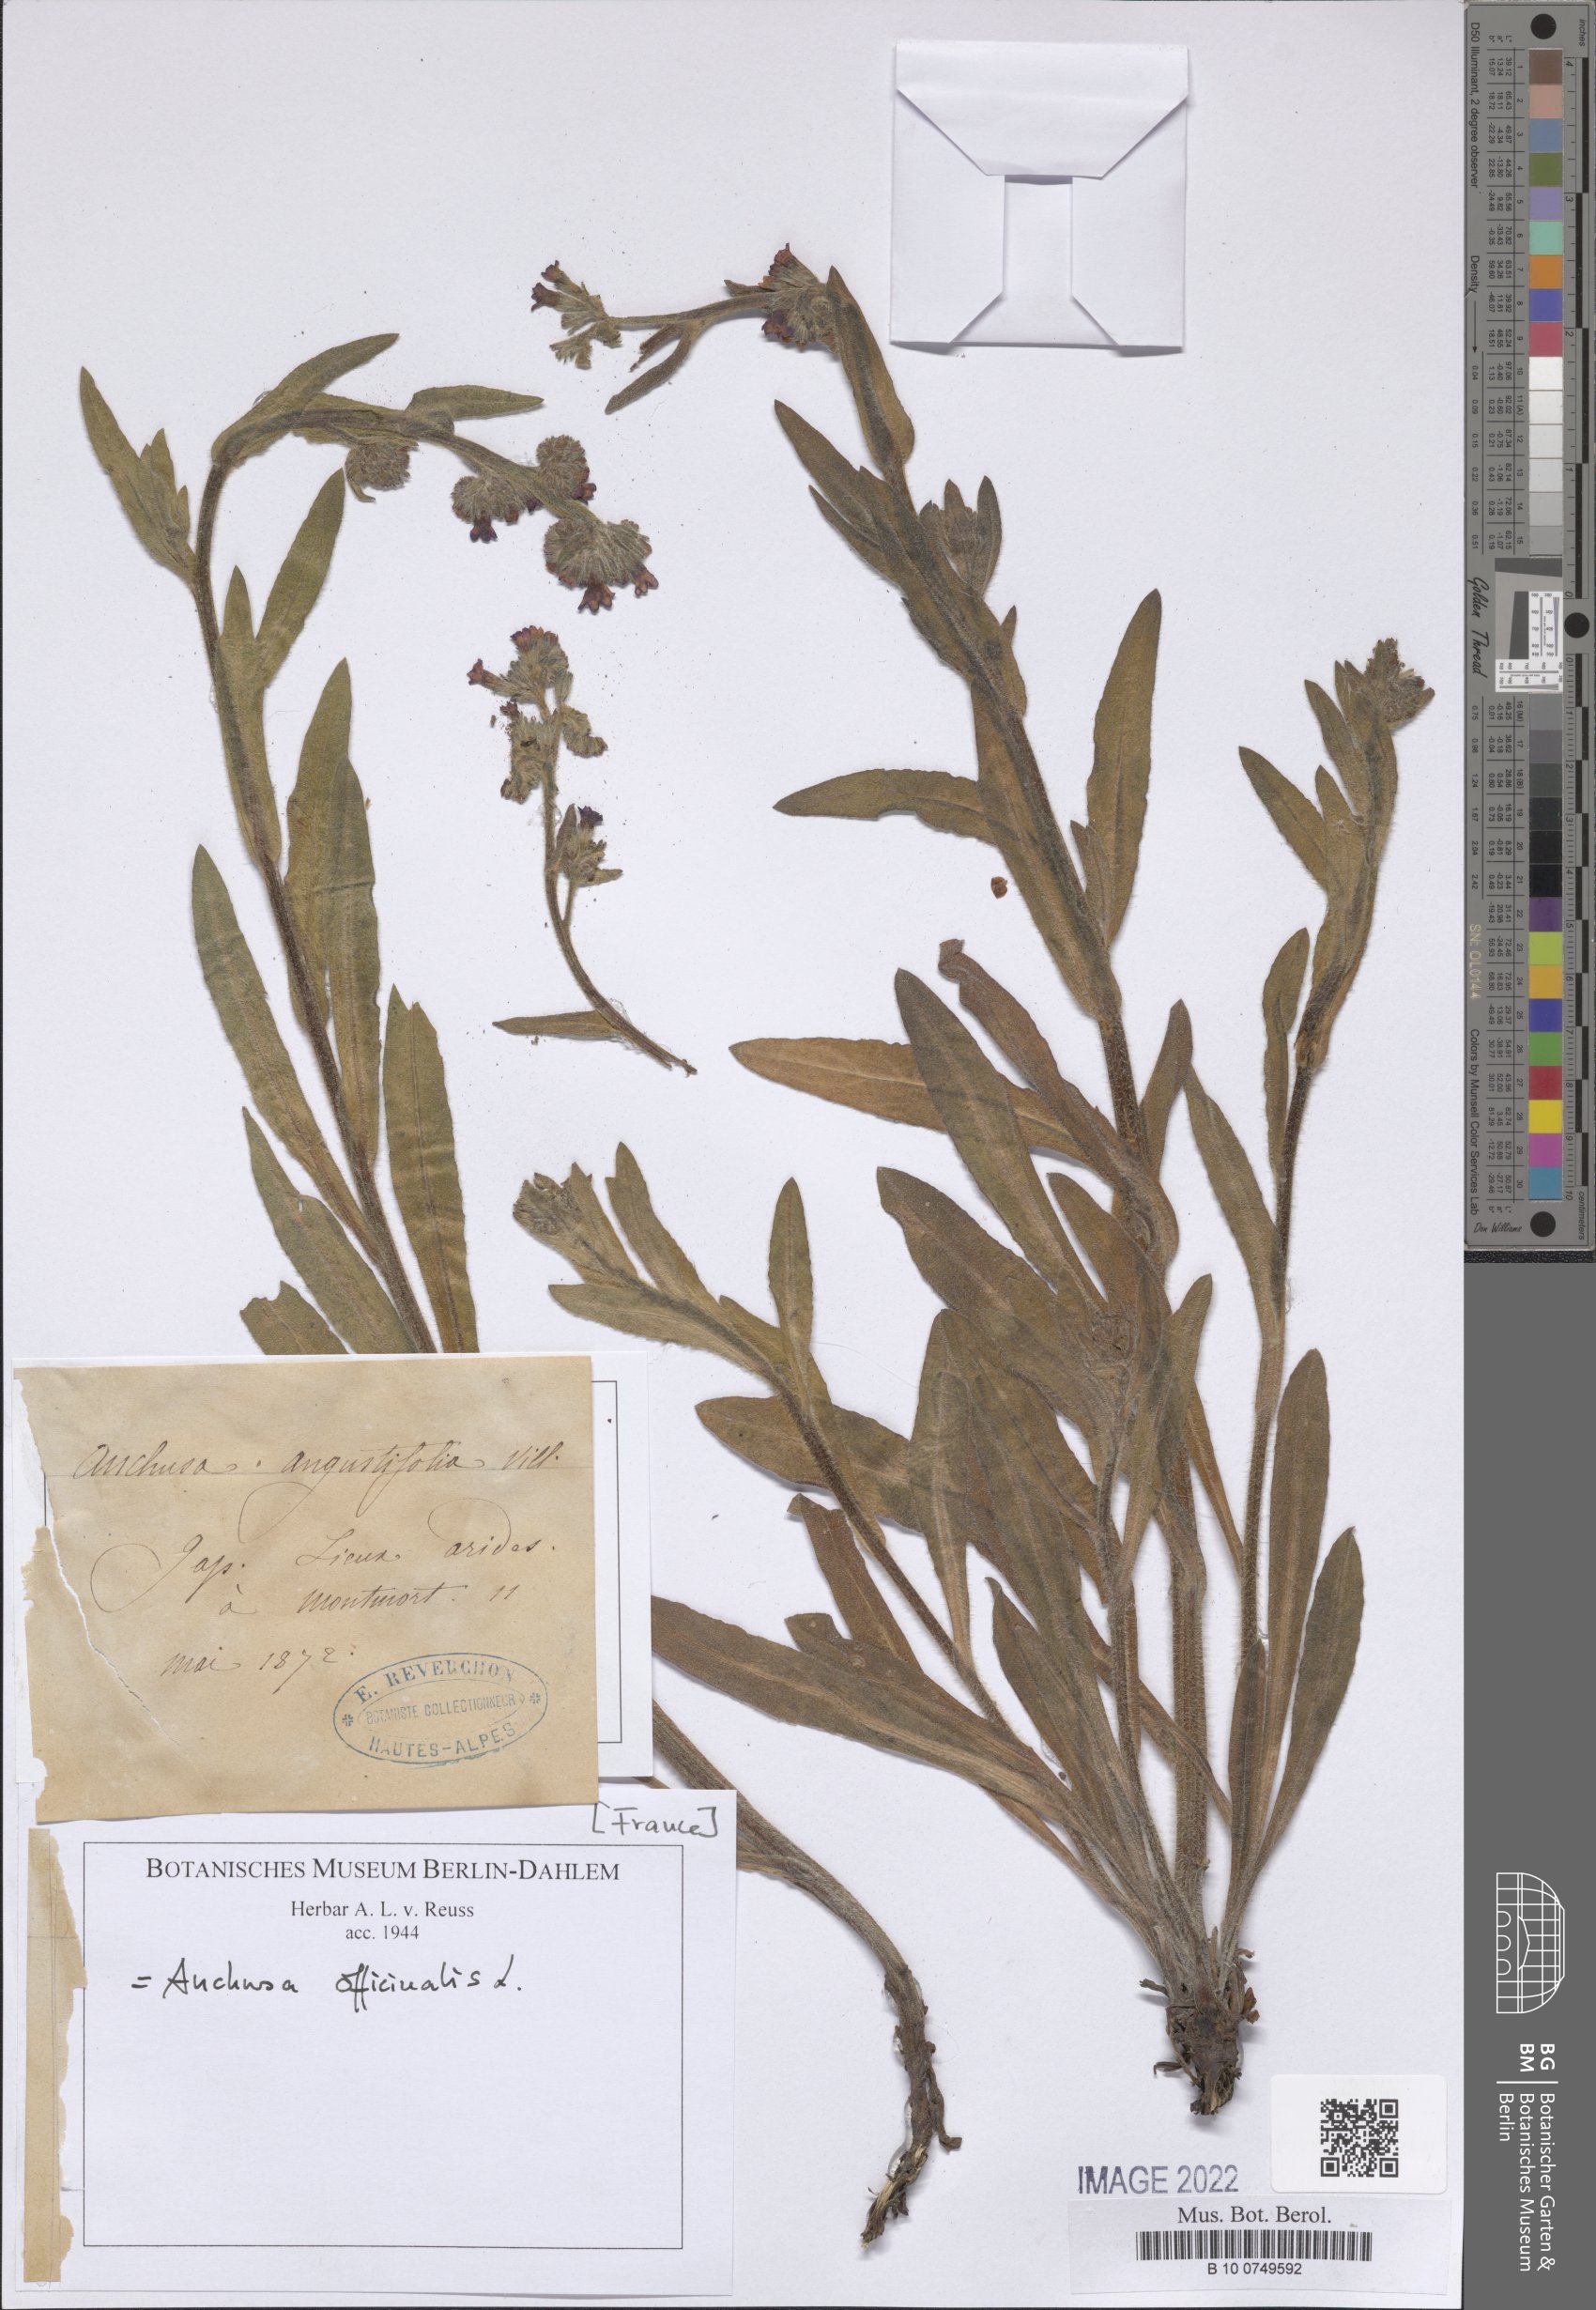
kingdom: Plantae
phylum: Tracheophyta
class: Magnoliopsida
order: Boraginales
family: Boraginaceae
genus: Anchusa
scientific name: Anchusa officinalis
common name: Alkanet
